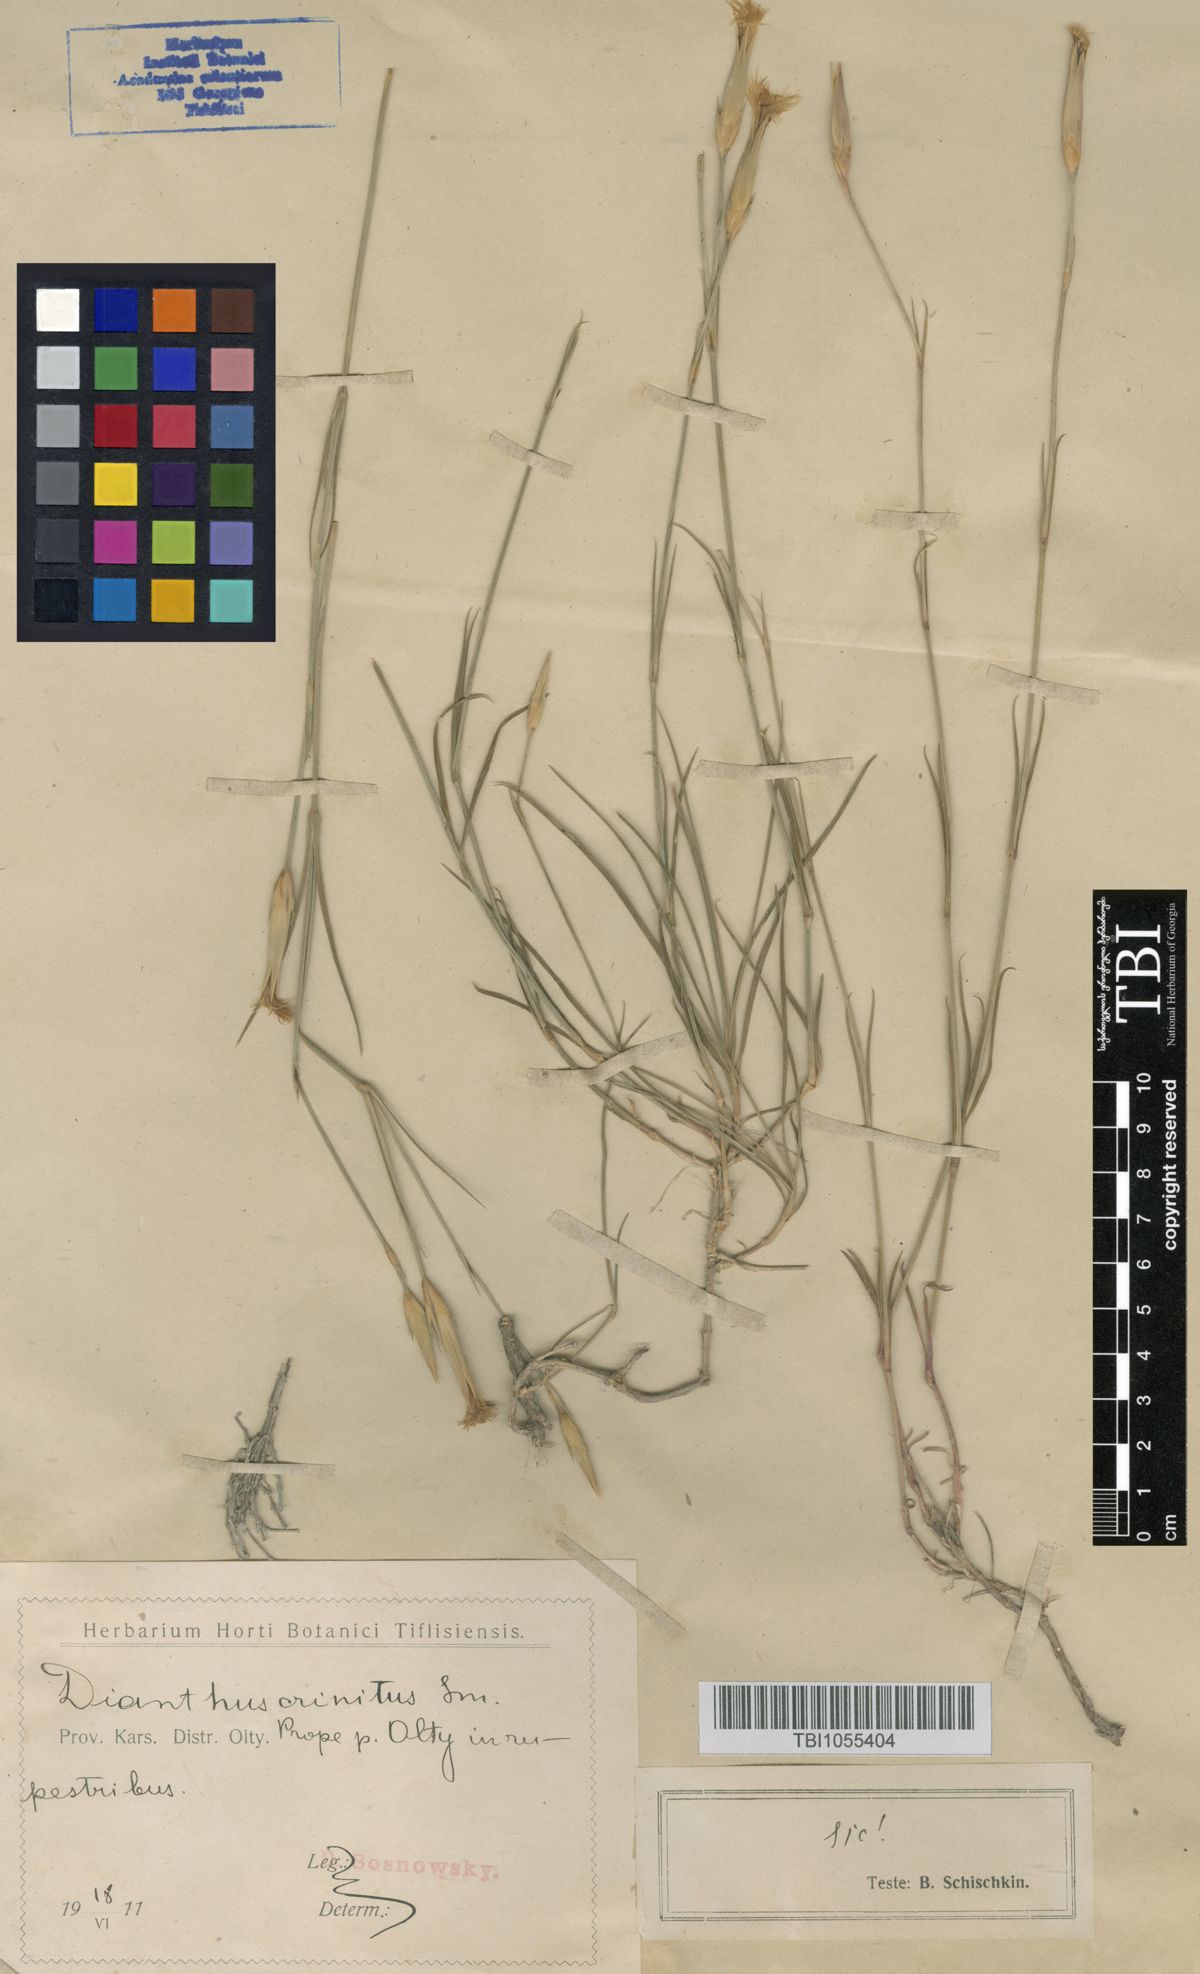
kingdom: Plantae
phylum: Tracheophyta
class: Magnoliopsida
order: Caryophyllales
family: Caryophyllaceae
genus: Dianthus
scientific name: Dianthus crinitus
